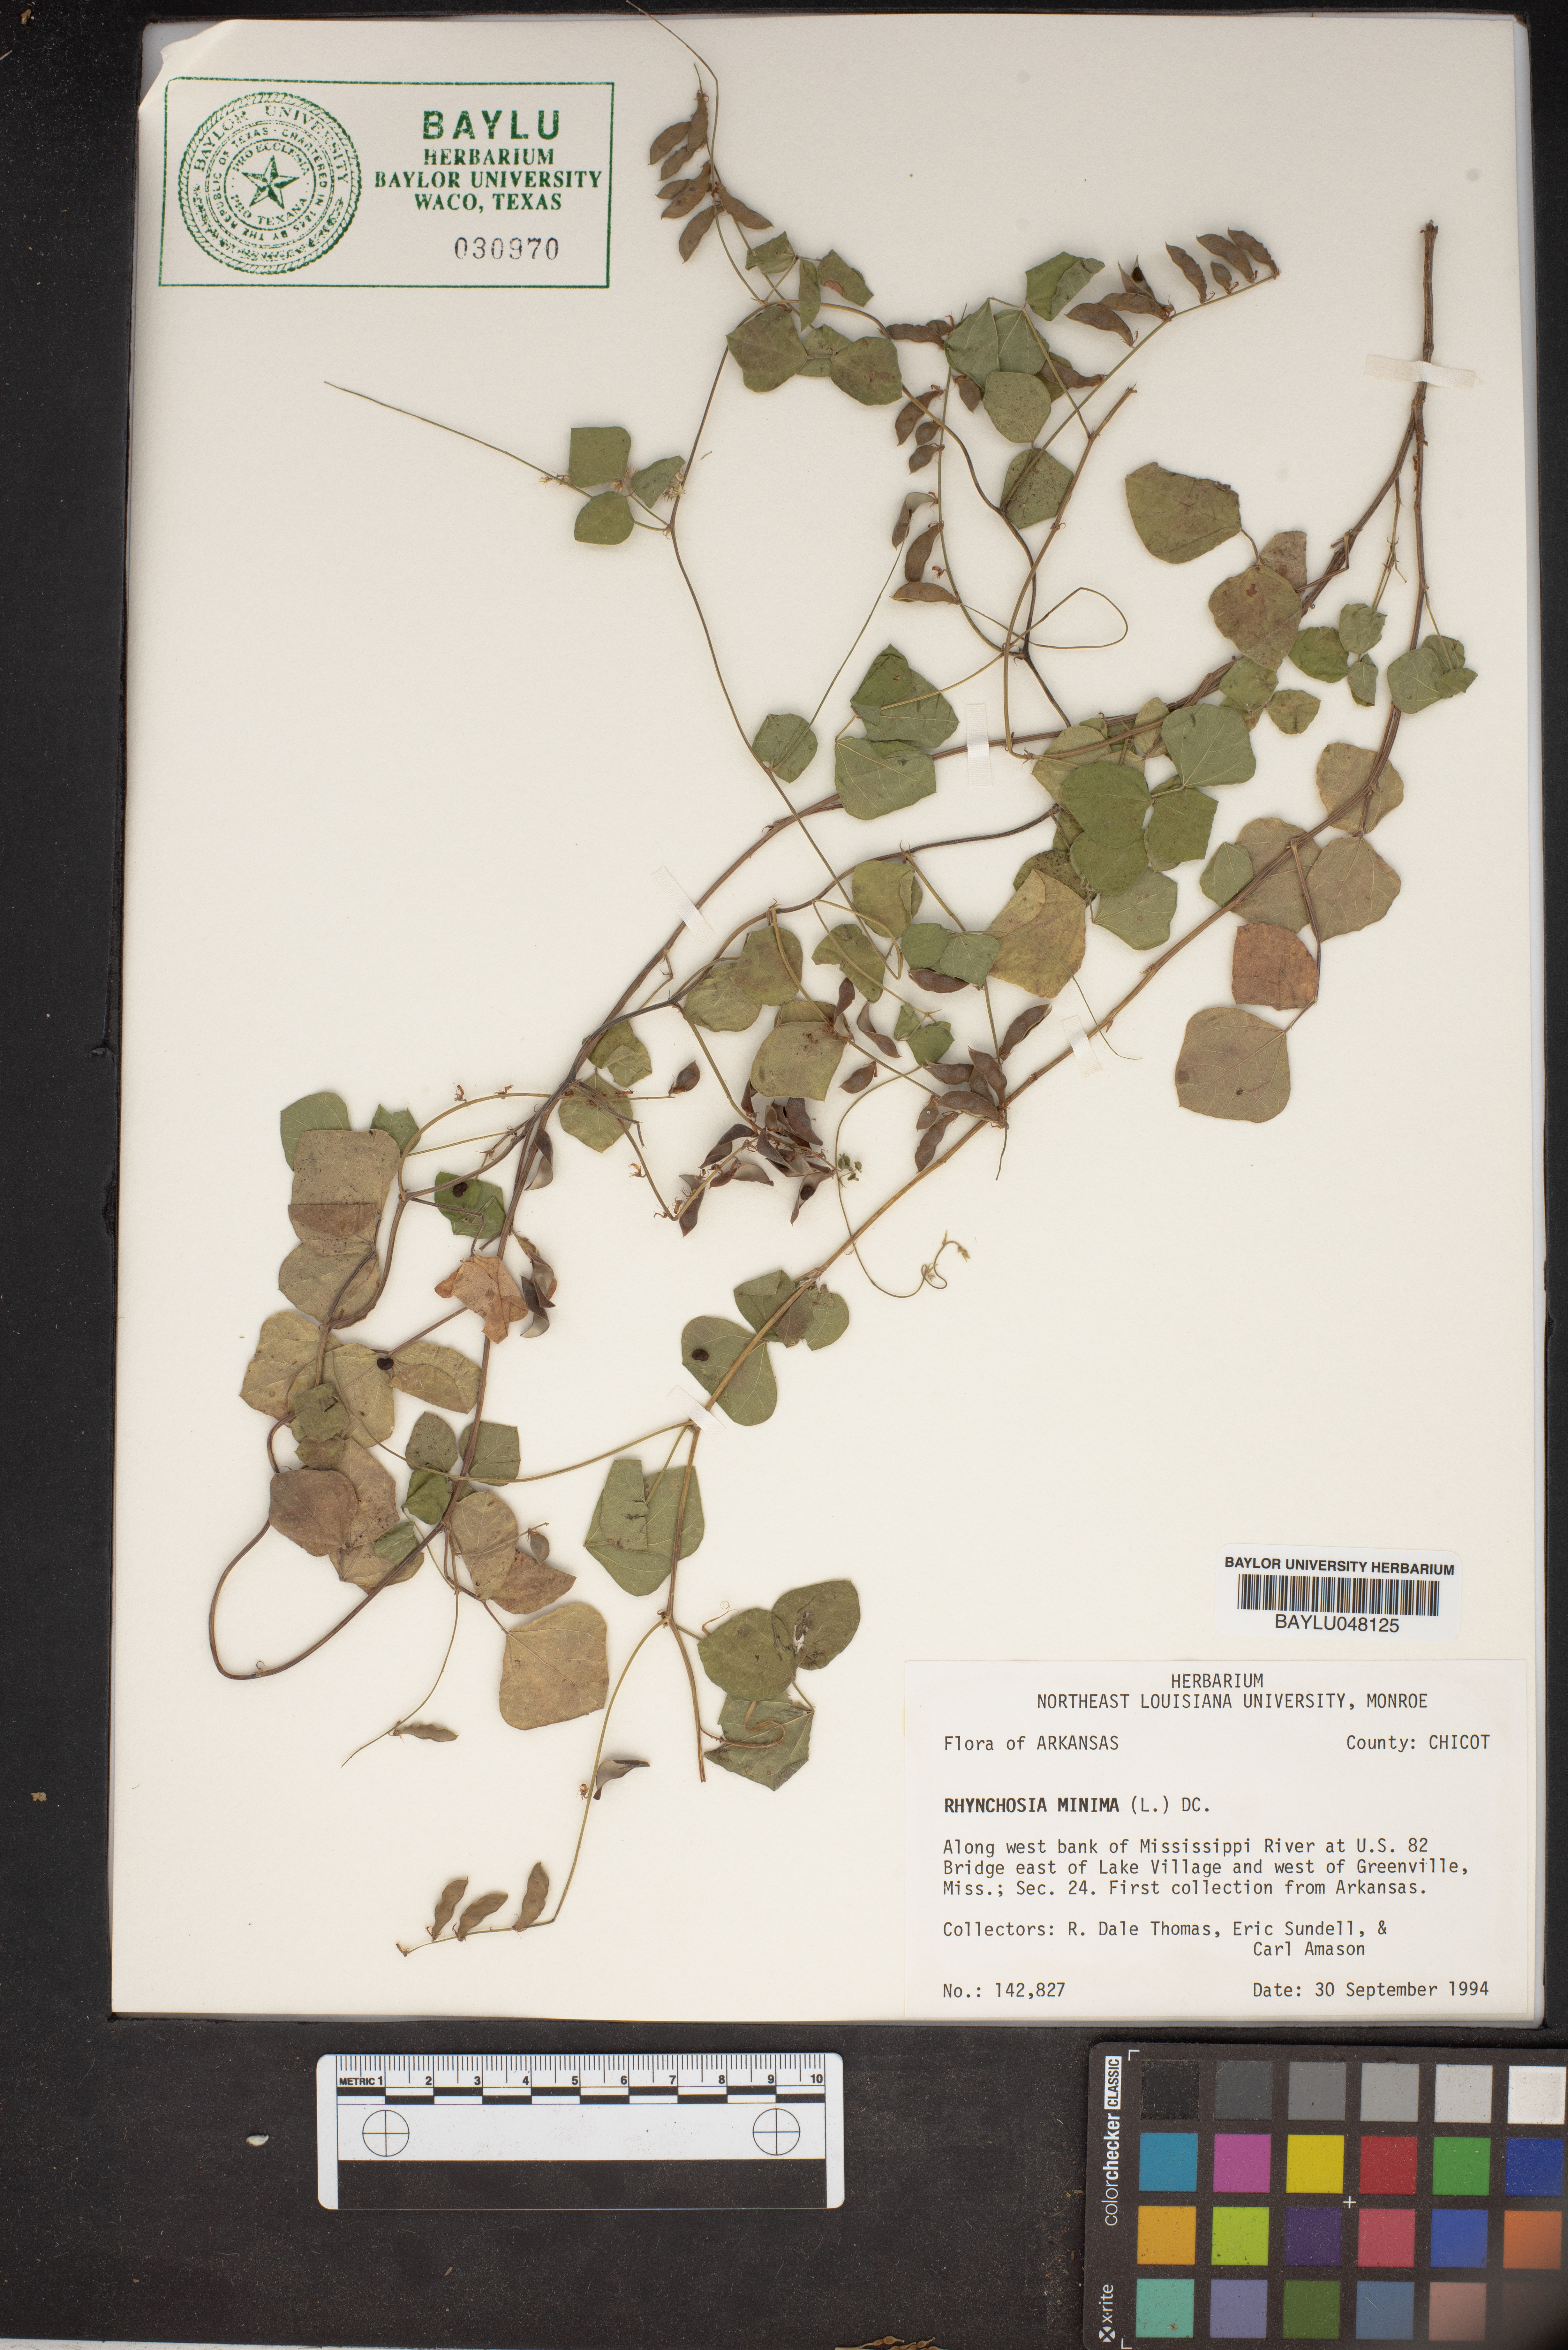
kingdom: Plantae
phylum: Tracheophyta
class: Magnoliopsida
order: Fabales
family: Fabaceae
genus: Rhynchosia
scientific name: Rhynchosia minima
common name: Least snoutbean
